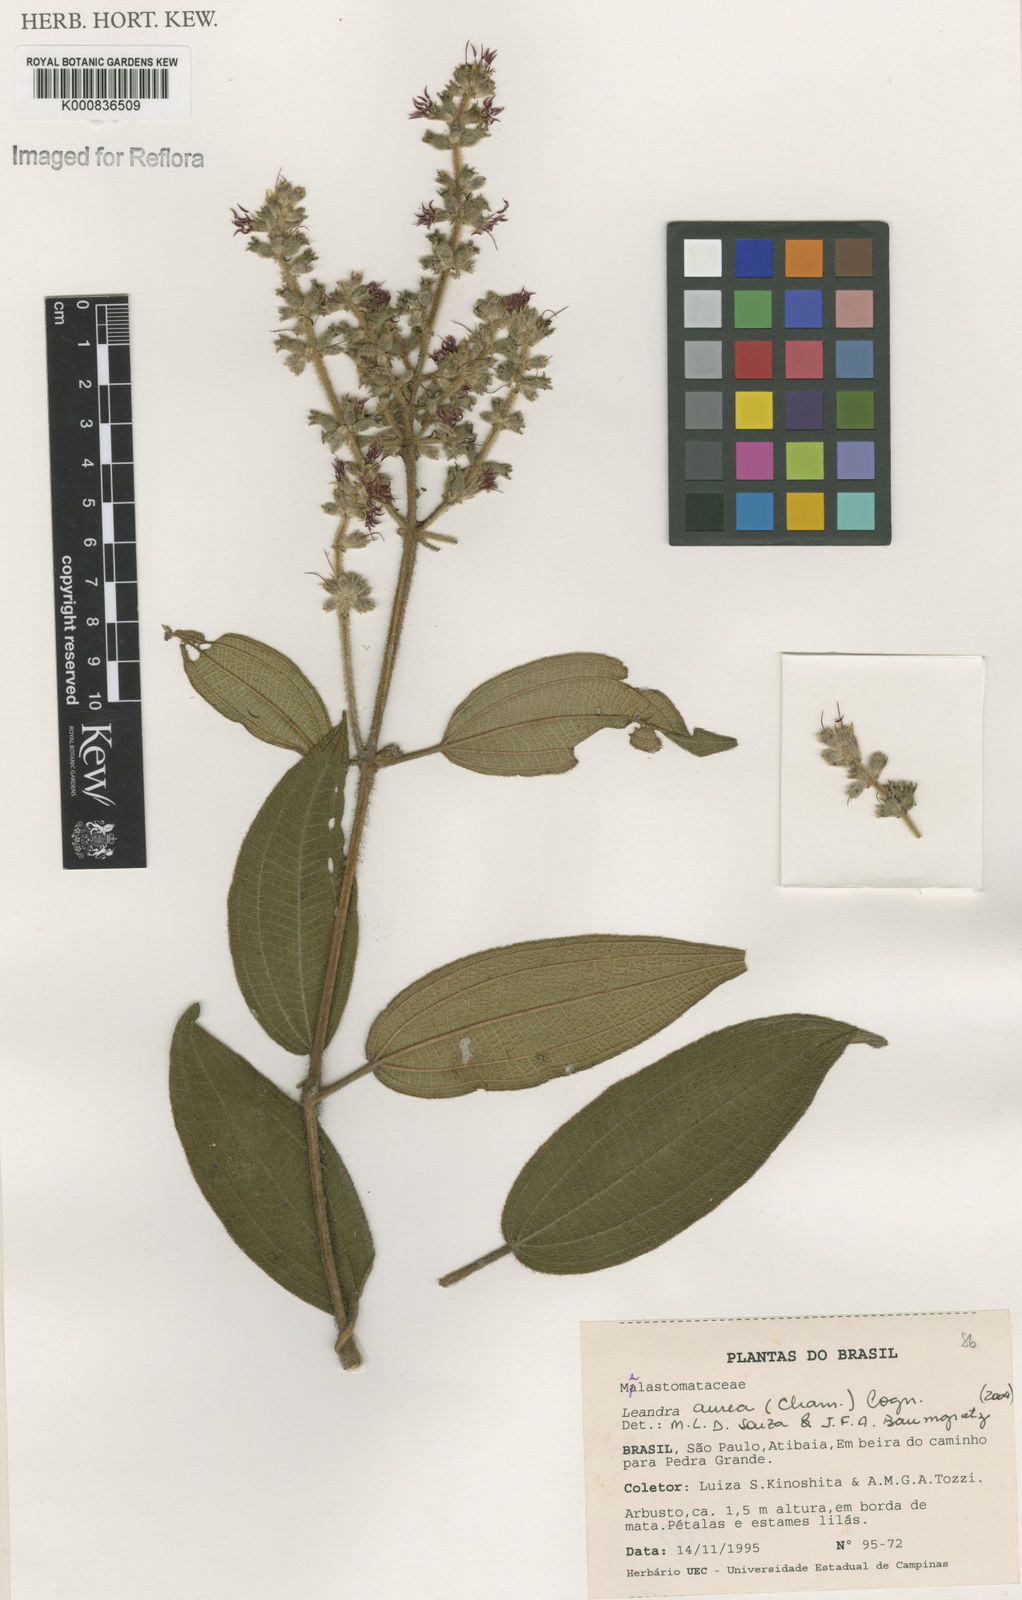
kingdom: Plantae
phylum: Tracheophyta
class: Magnoliopsida
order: Myrtales
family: Melastomataceae
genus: Miconia
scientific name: Miconia auricoma
